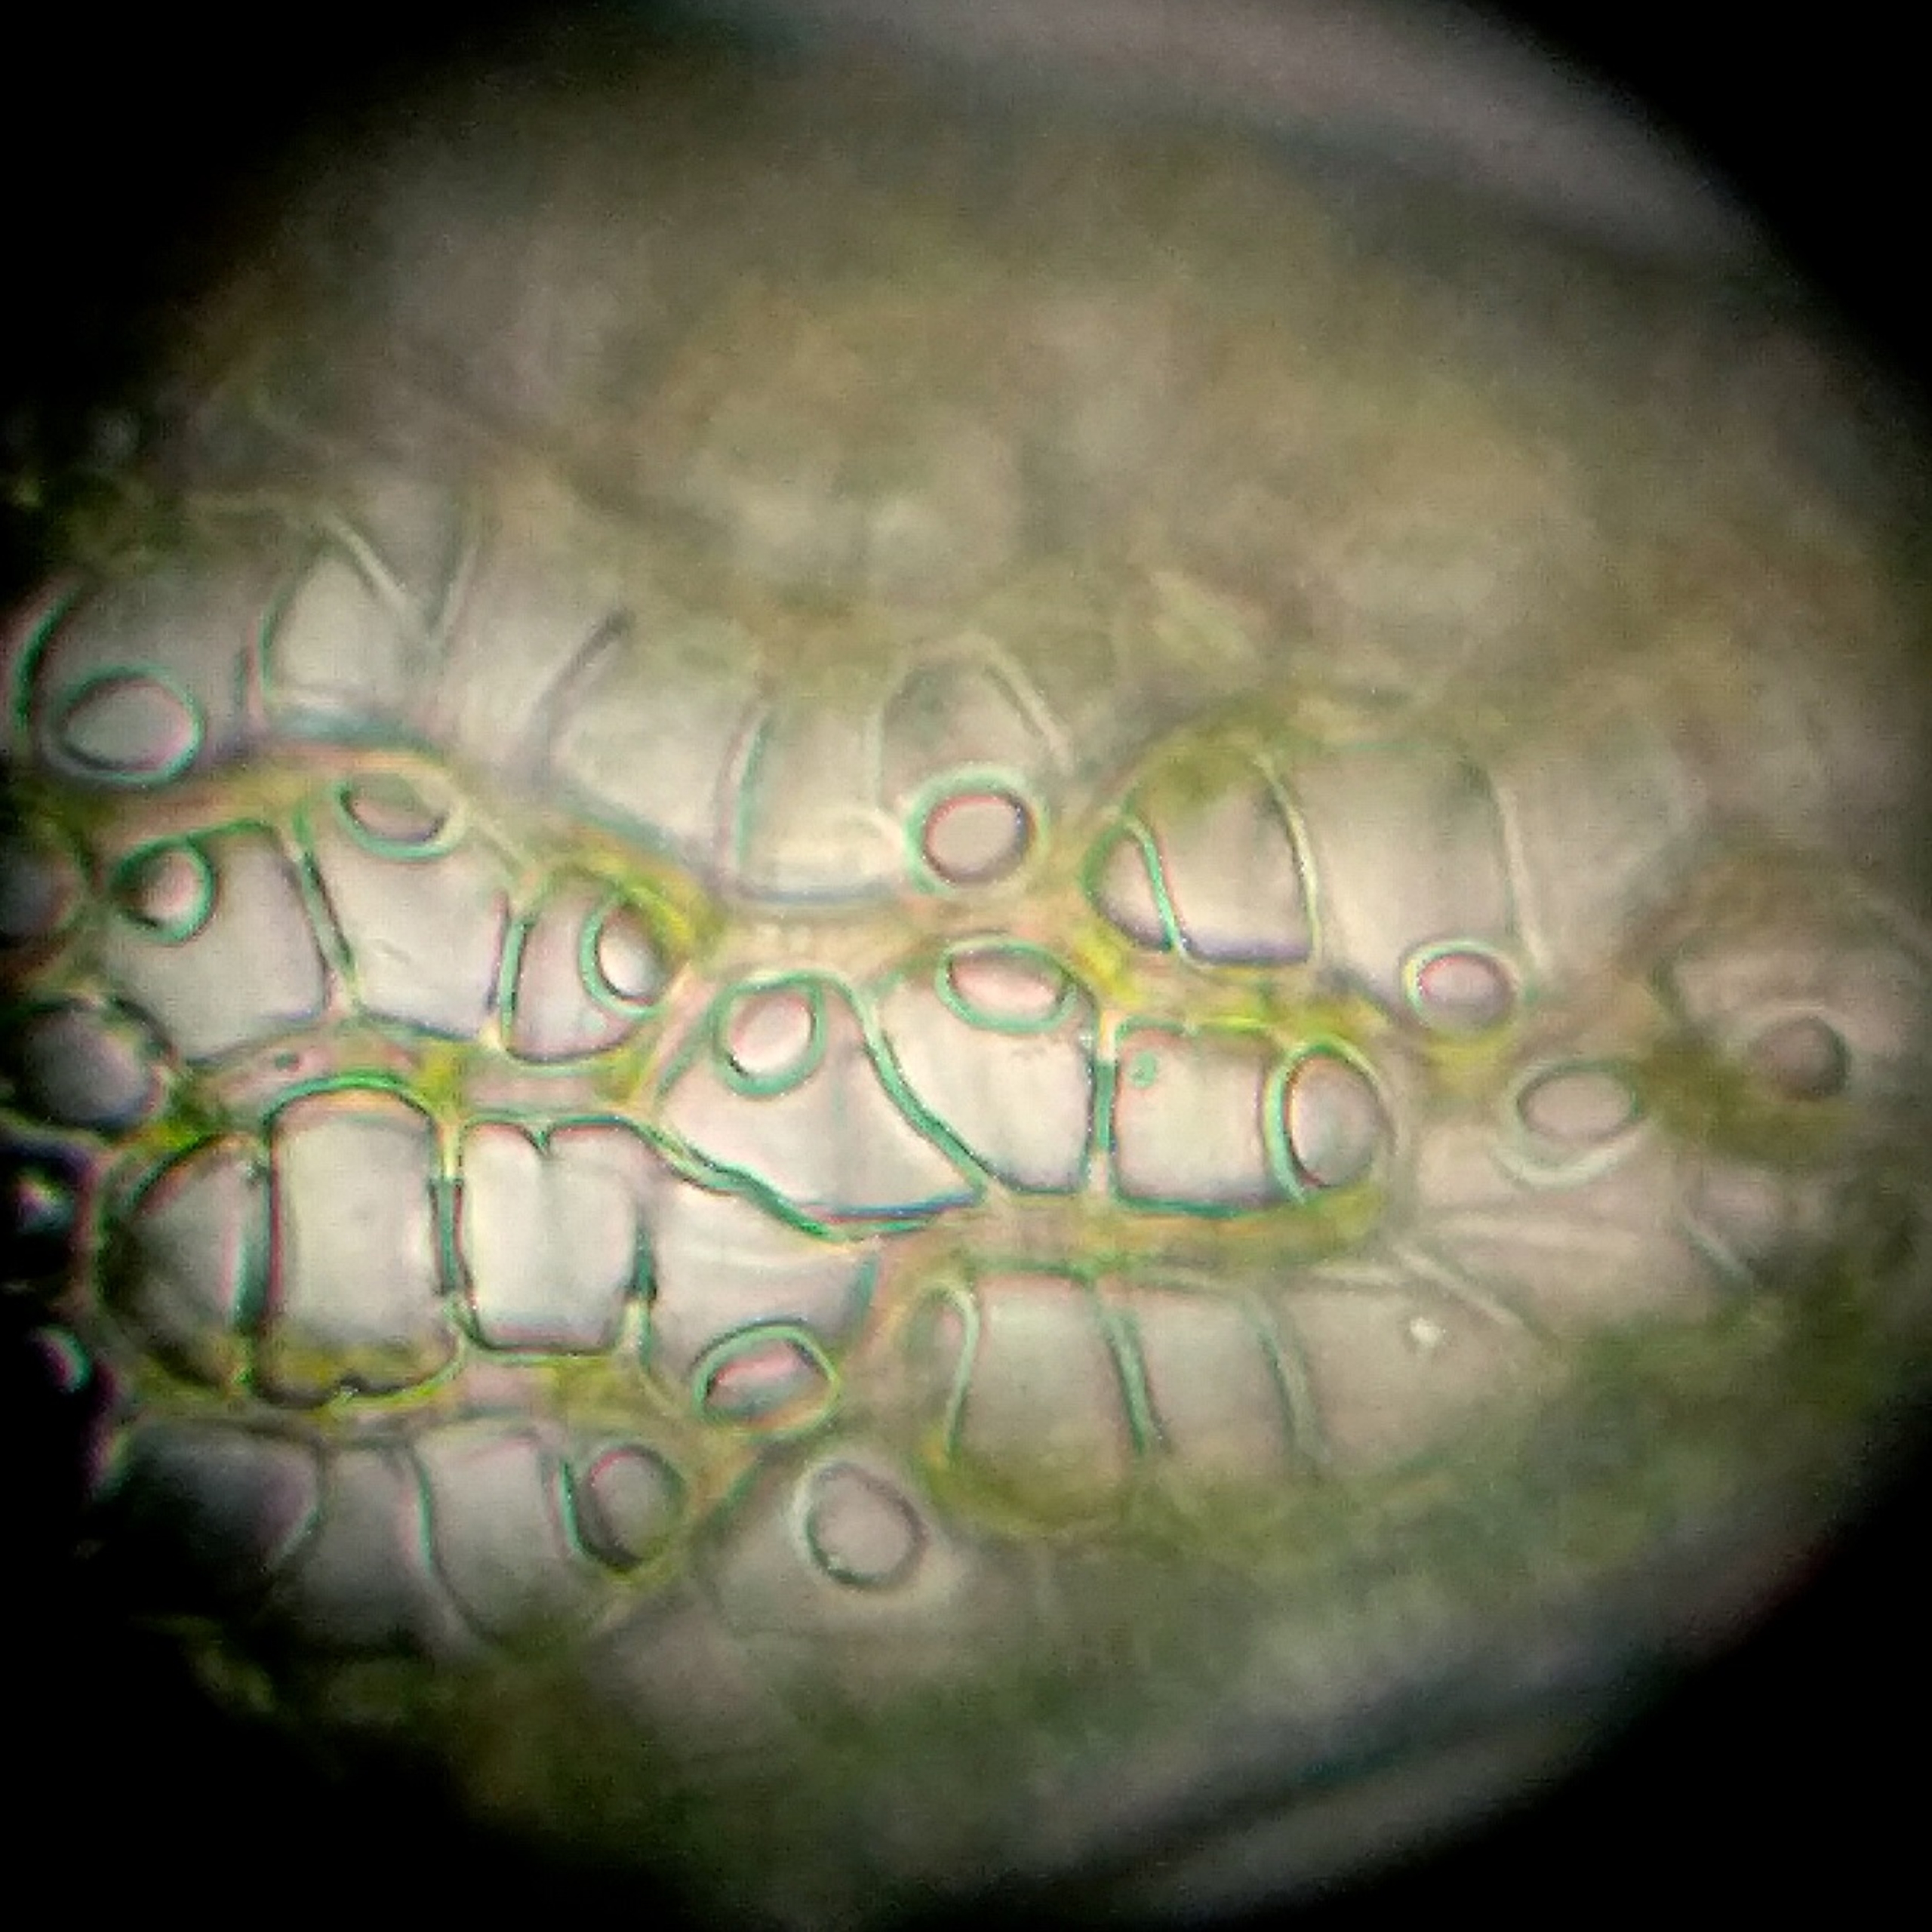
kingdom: Plantae
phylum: Bryophyta
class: Sphagnopsida
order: Sphagnales
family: Sphagnaceae
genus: Sphagnum
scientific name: Sphagnum warnstorfii
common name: Blygrå tørvemos
